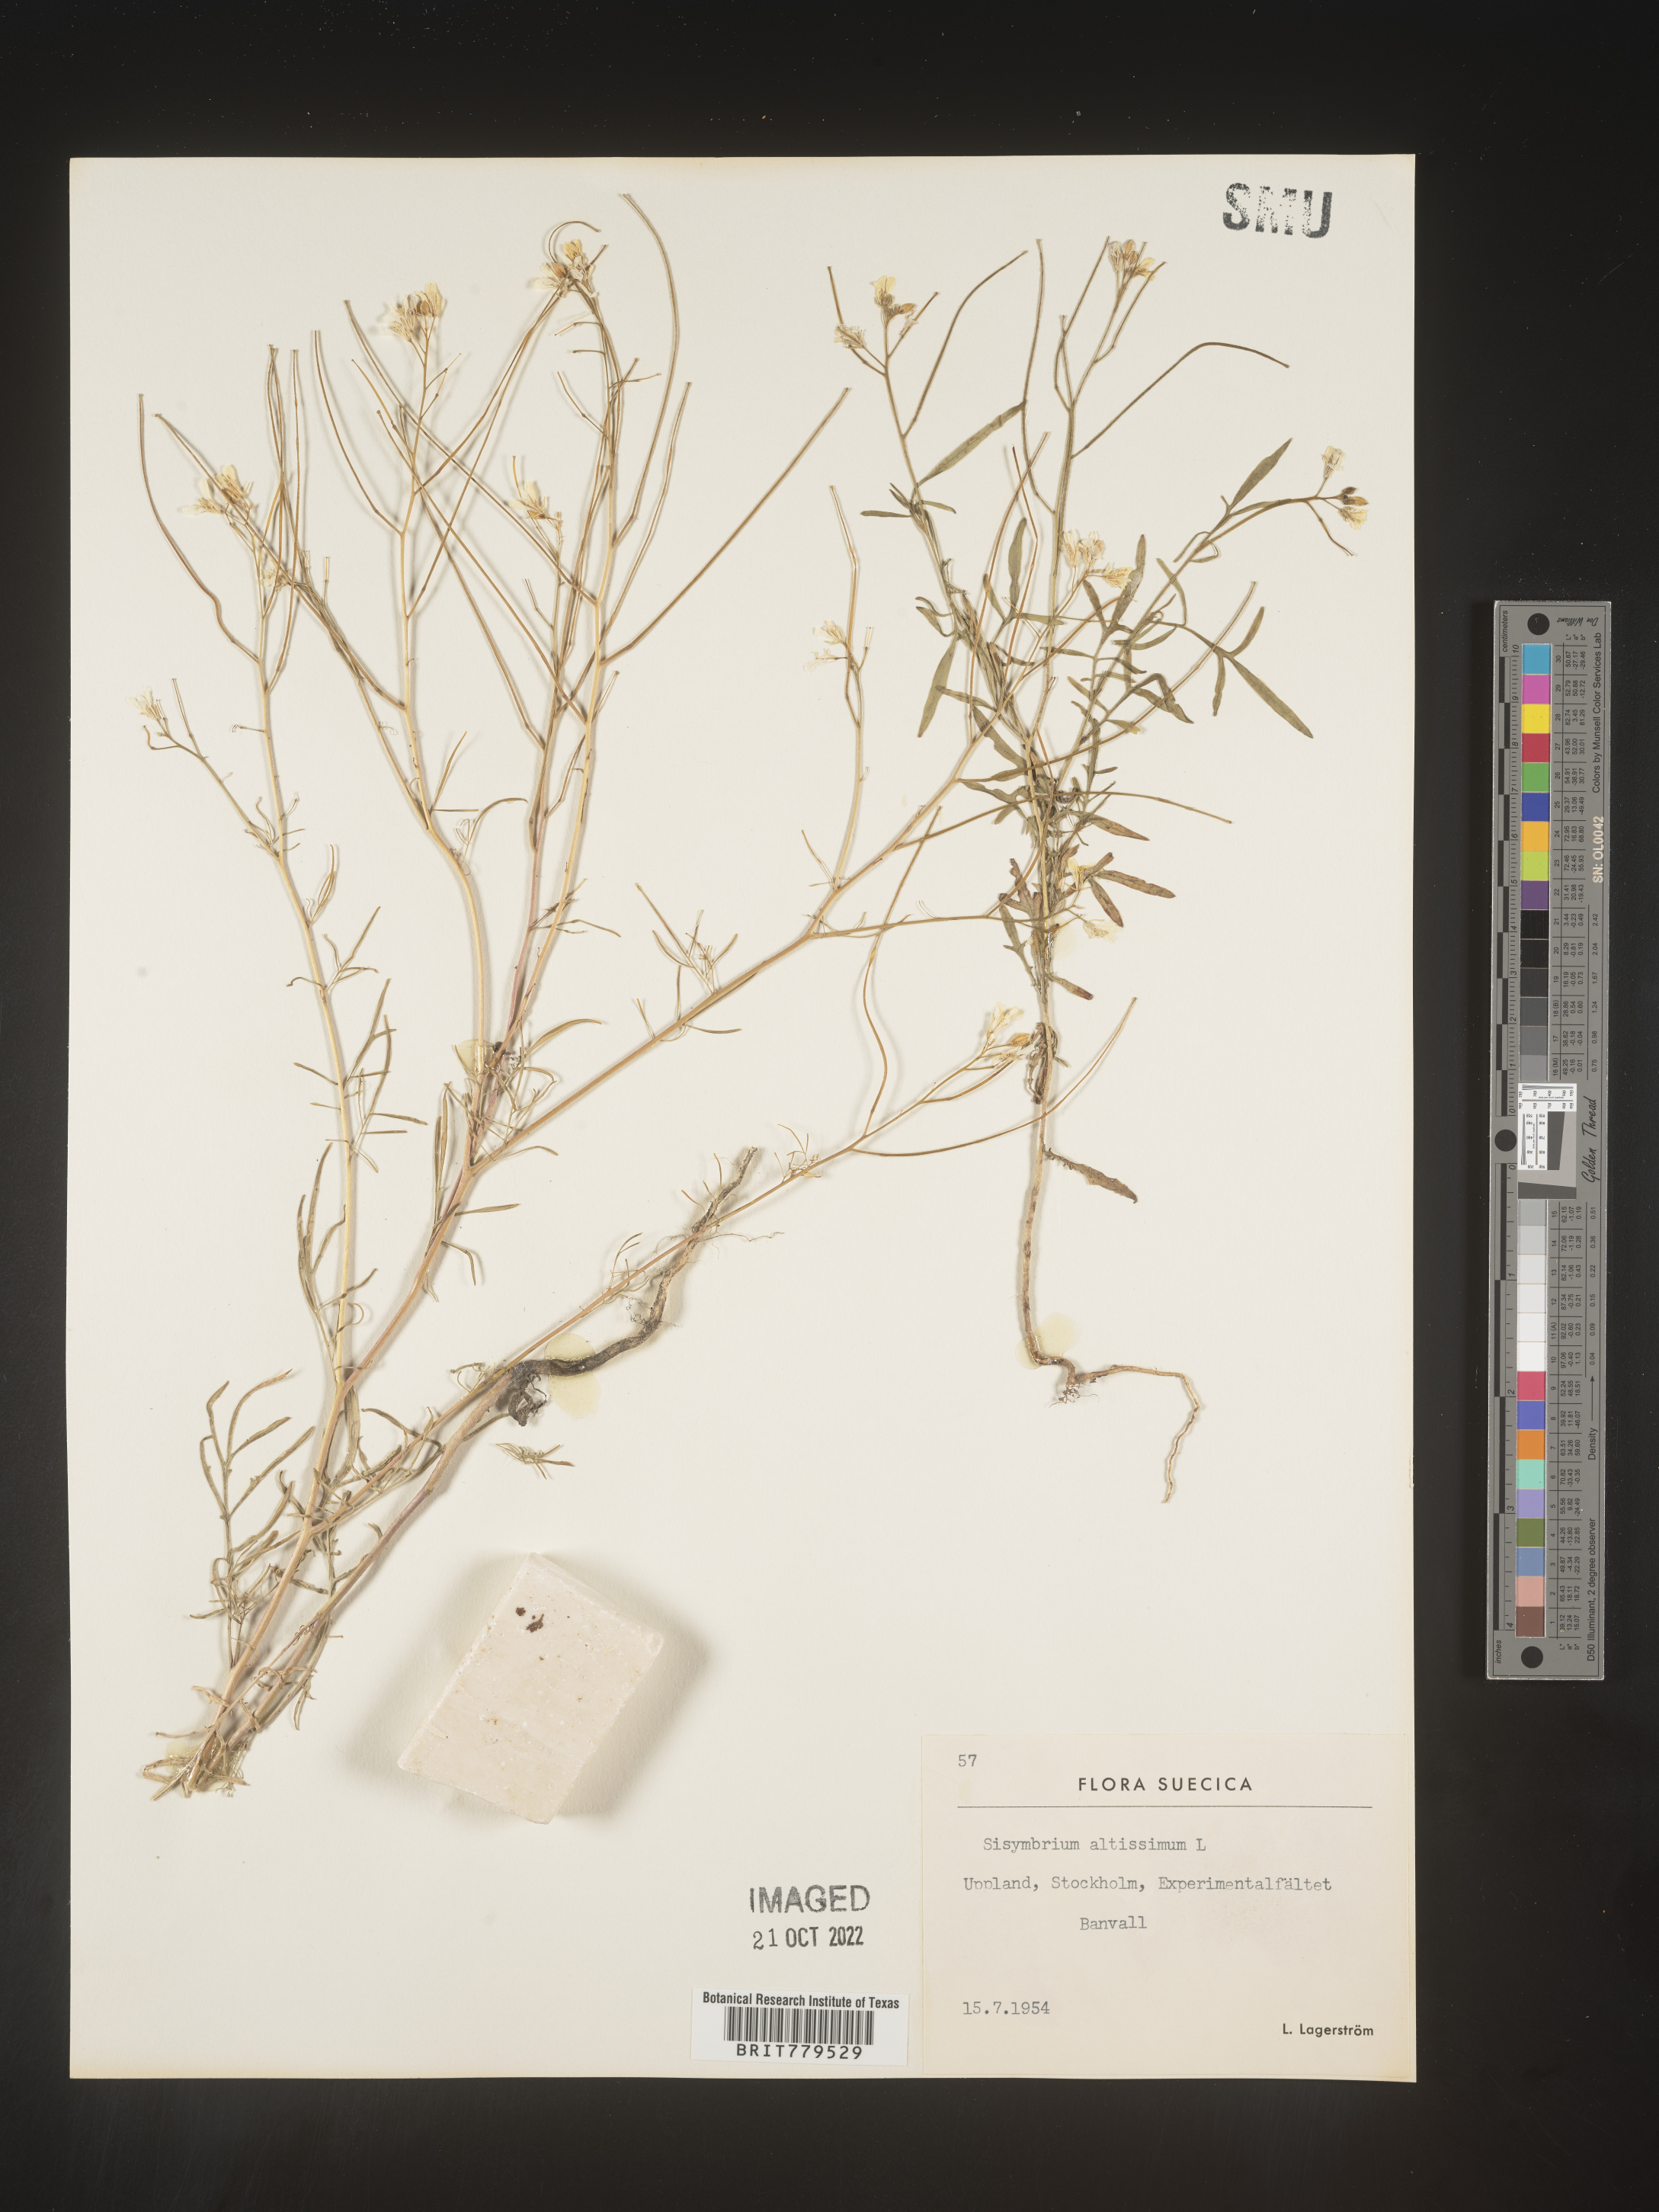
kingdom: Plantae
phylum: Tracheophyta
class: Magnoliopsida
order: Brassicales
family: Brassicaceae
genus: Sisymbrium
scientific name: Sisymbrium
